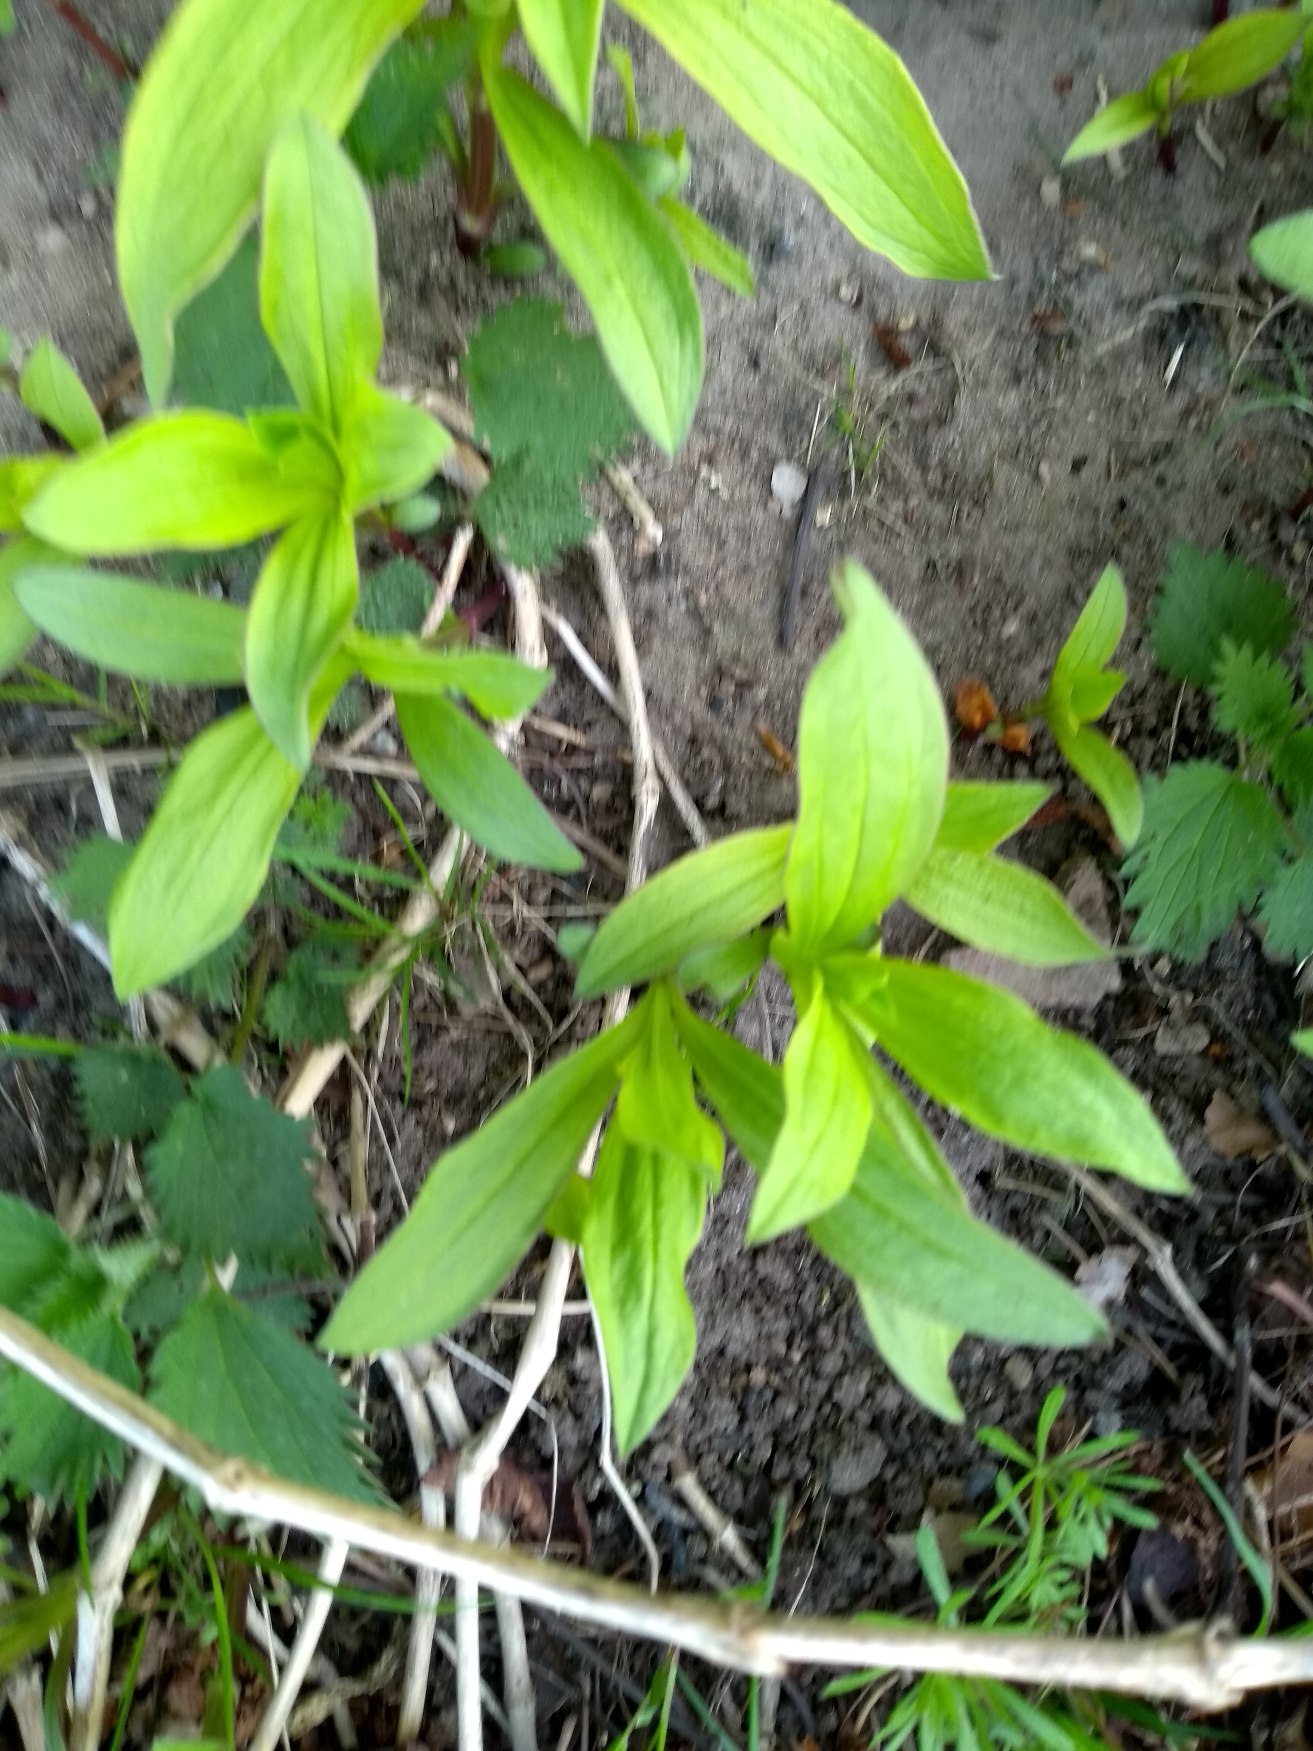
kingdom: Plantae
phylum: Tracheophyta
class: Magnoliopsida
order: Caryophyllales
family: Caryophyllaceae
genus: Saponaria
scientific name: Saponaria officinalis
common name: Sæbeurt
